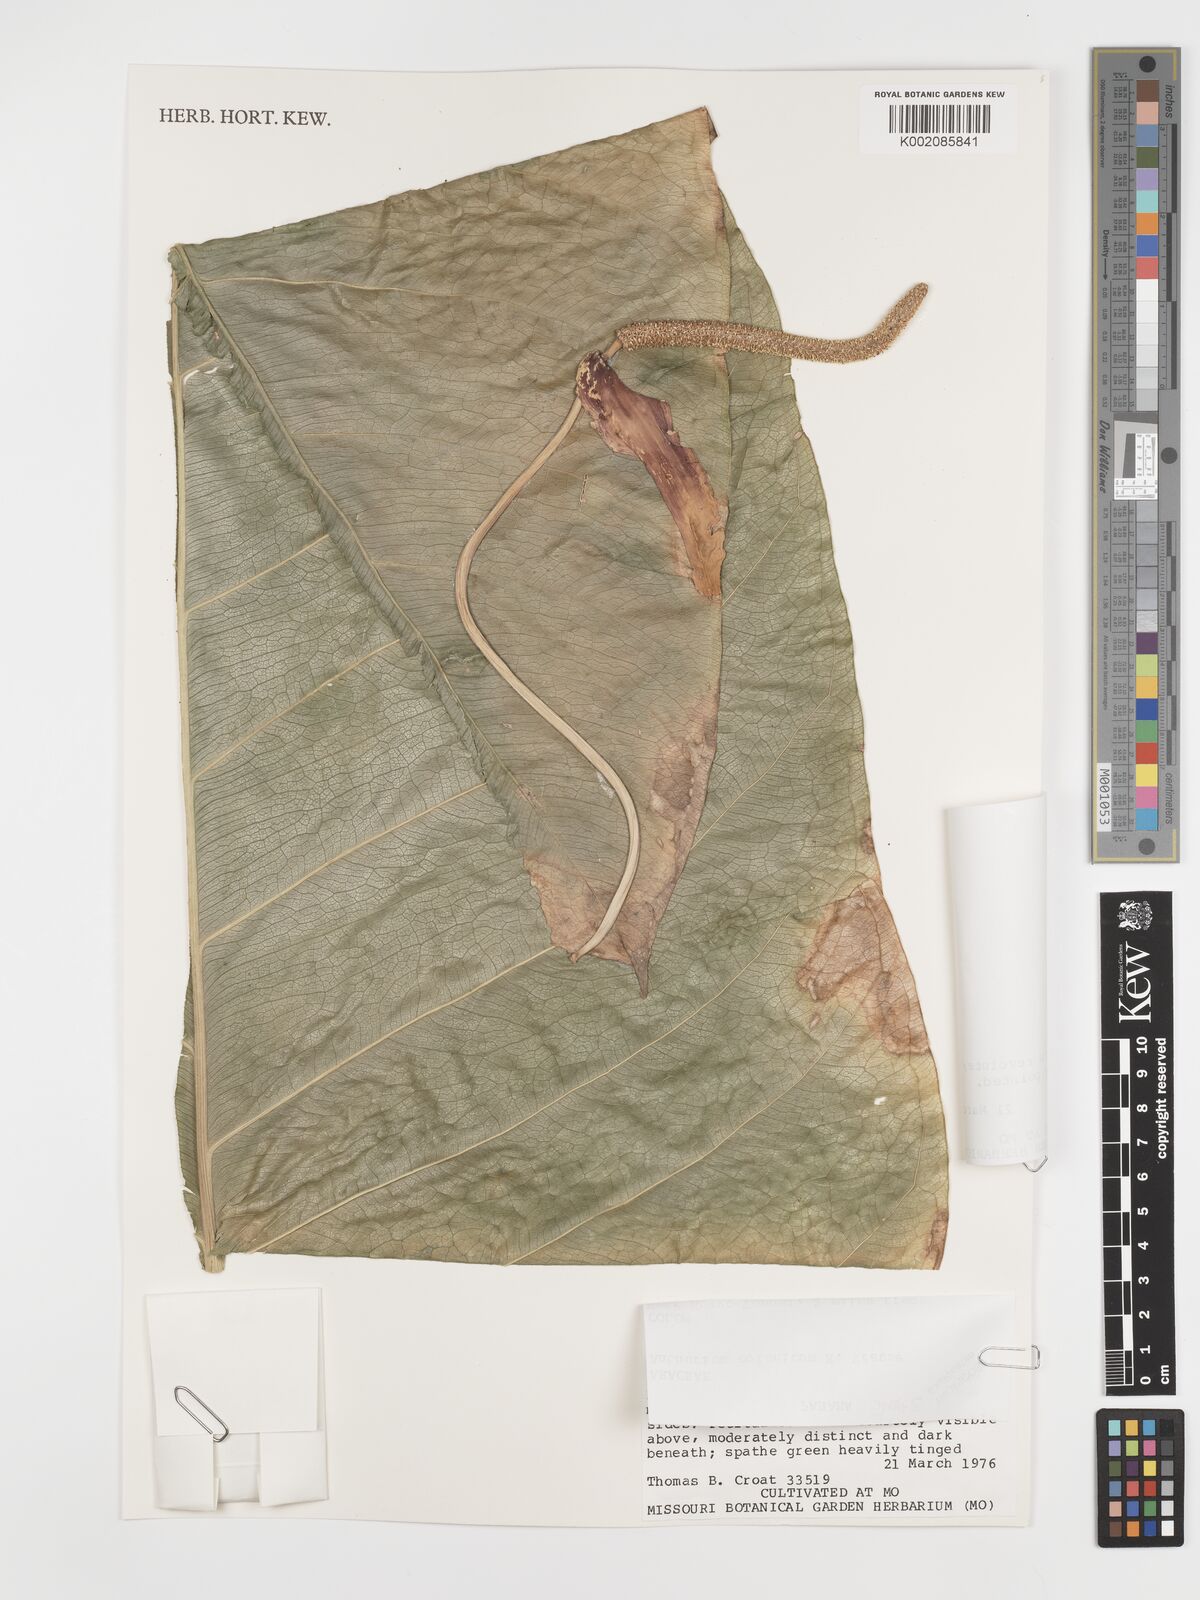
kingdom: Plantae
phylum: Tracheophyta
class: Liliopsida
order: Alismatales
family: Araceae
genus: Anthurium
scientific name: Anthurium colonicum
